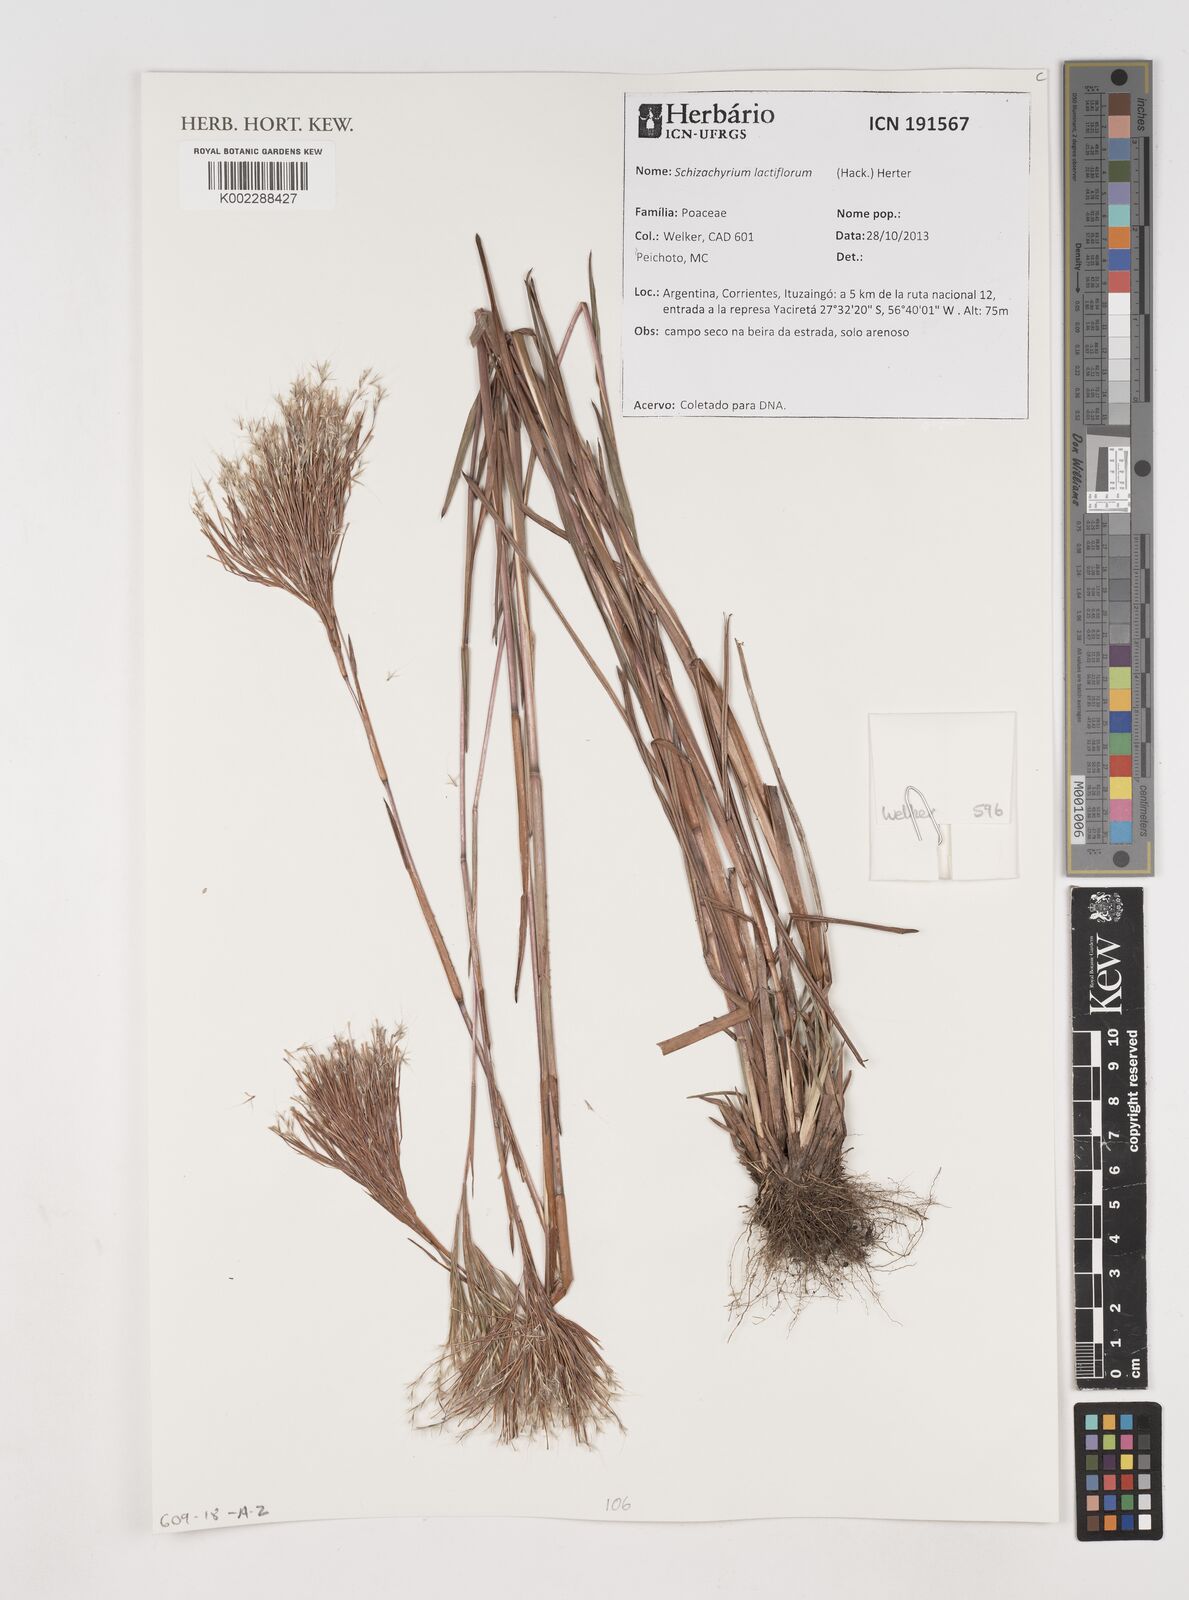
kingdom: Plantae
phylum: Tracheophyta
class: Liliopsida
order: Poales
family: Poaceae
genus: Schizachyrium
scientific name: Schizachyrium condensatum
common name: Bush beardgrass
